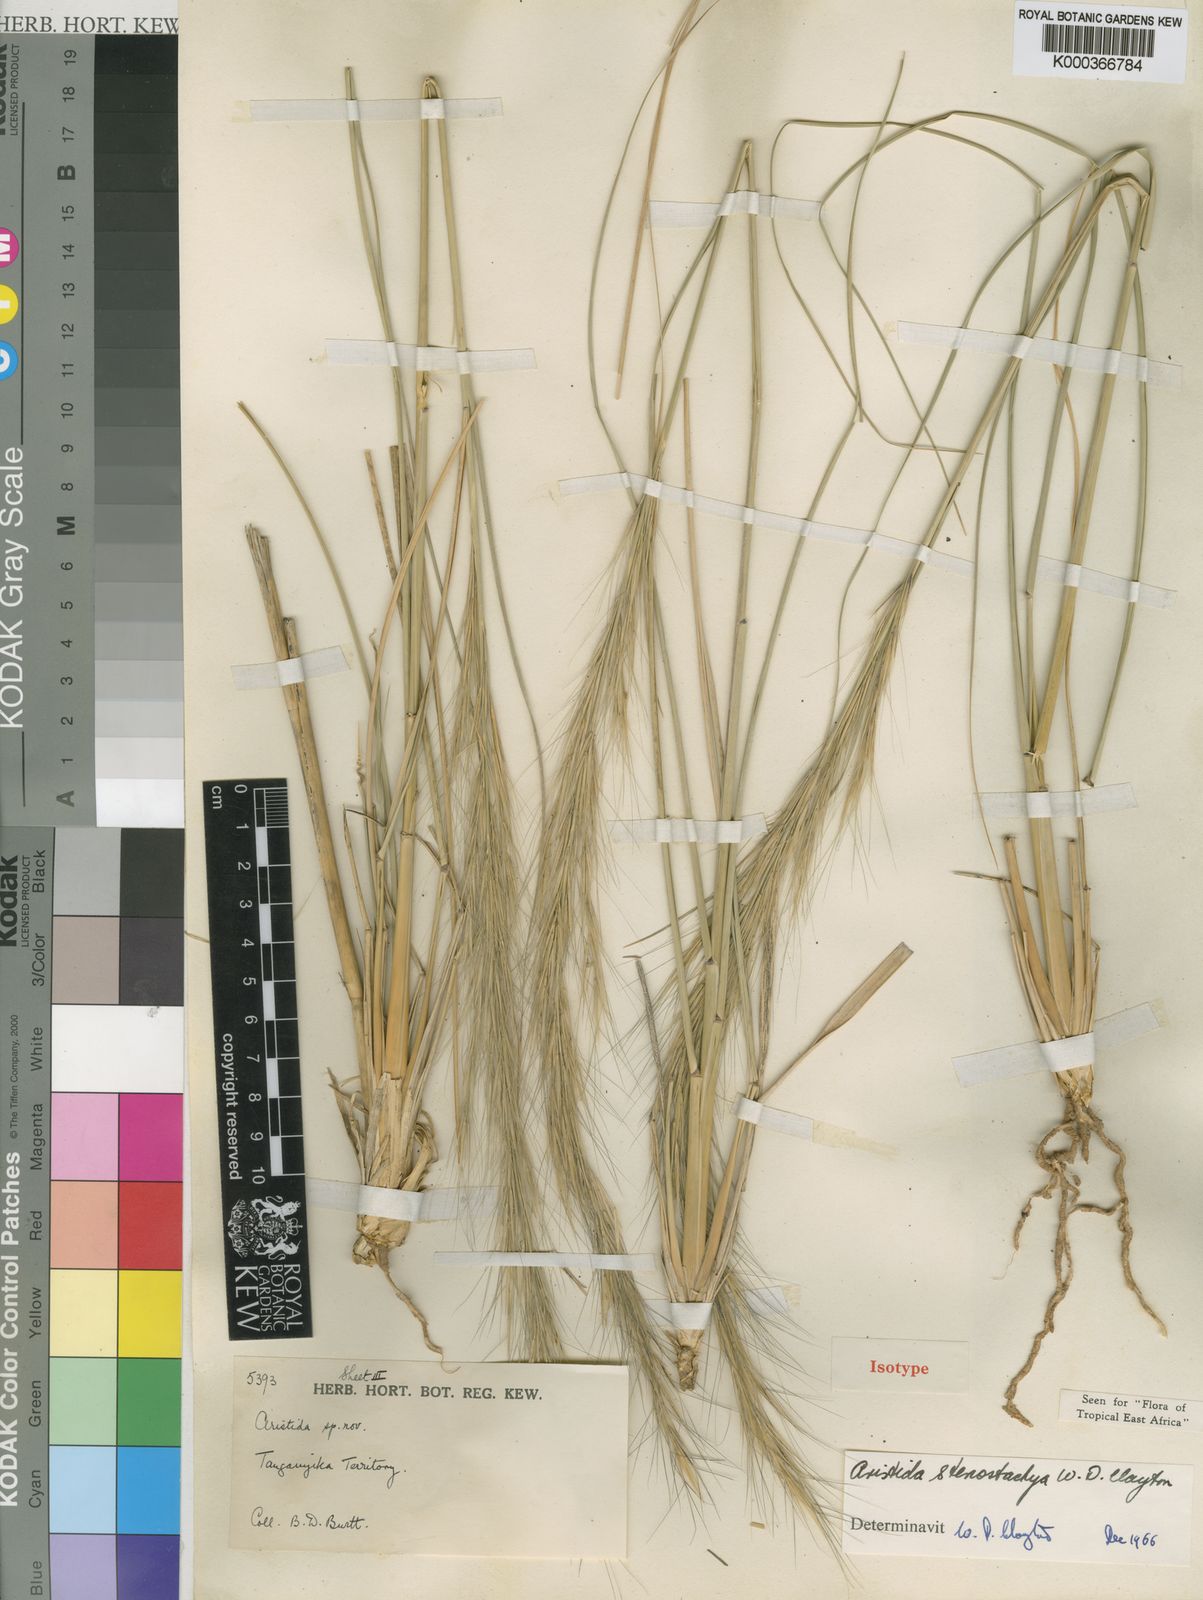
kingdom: Plantae
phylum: Tracheophyta
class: Liliopsida
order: Poales
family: Poaceae
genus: Aristida
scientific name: Aristida stenostachya
